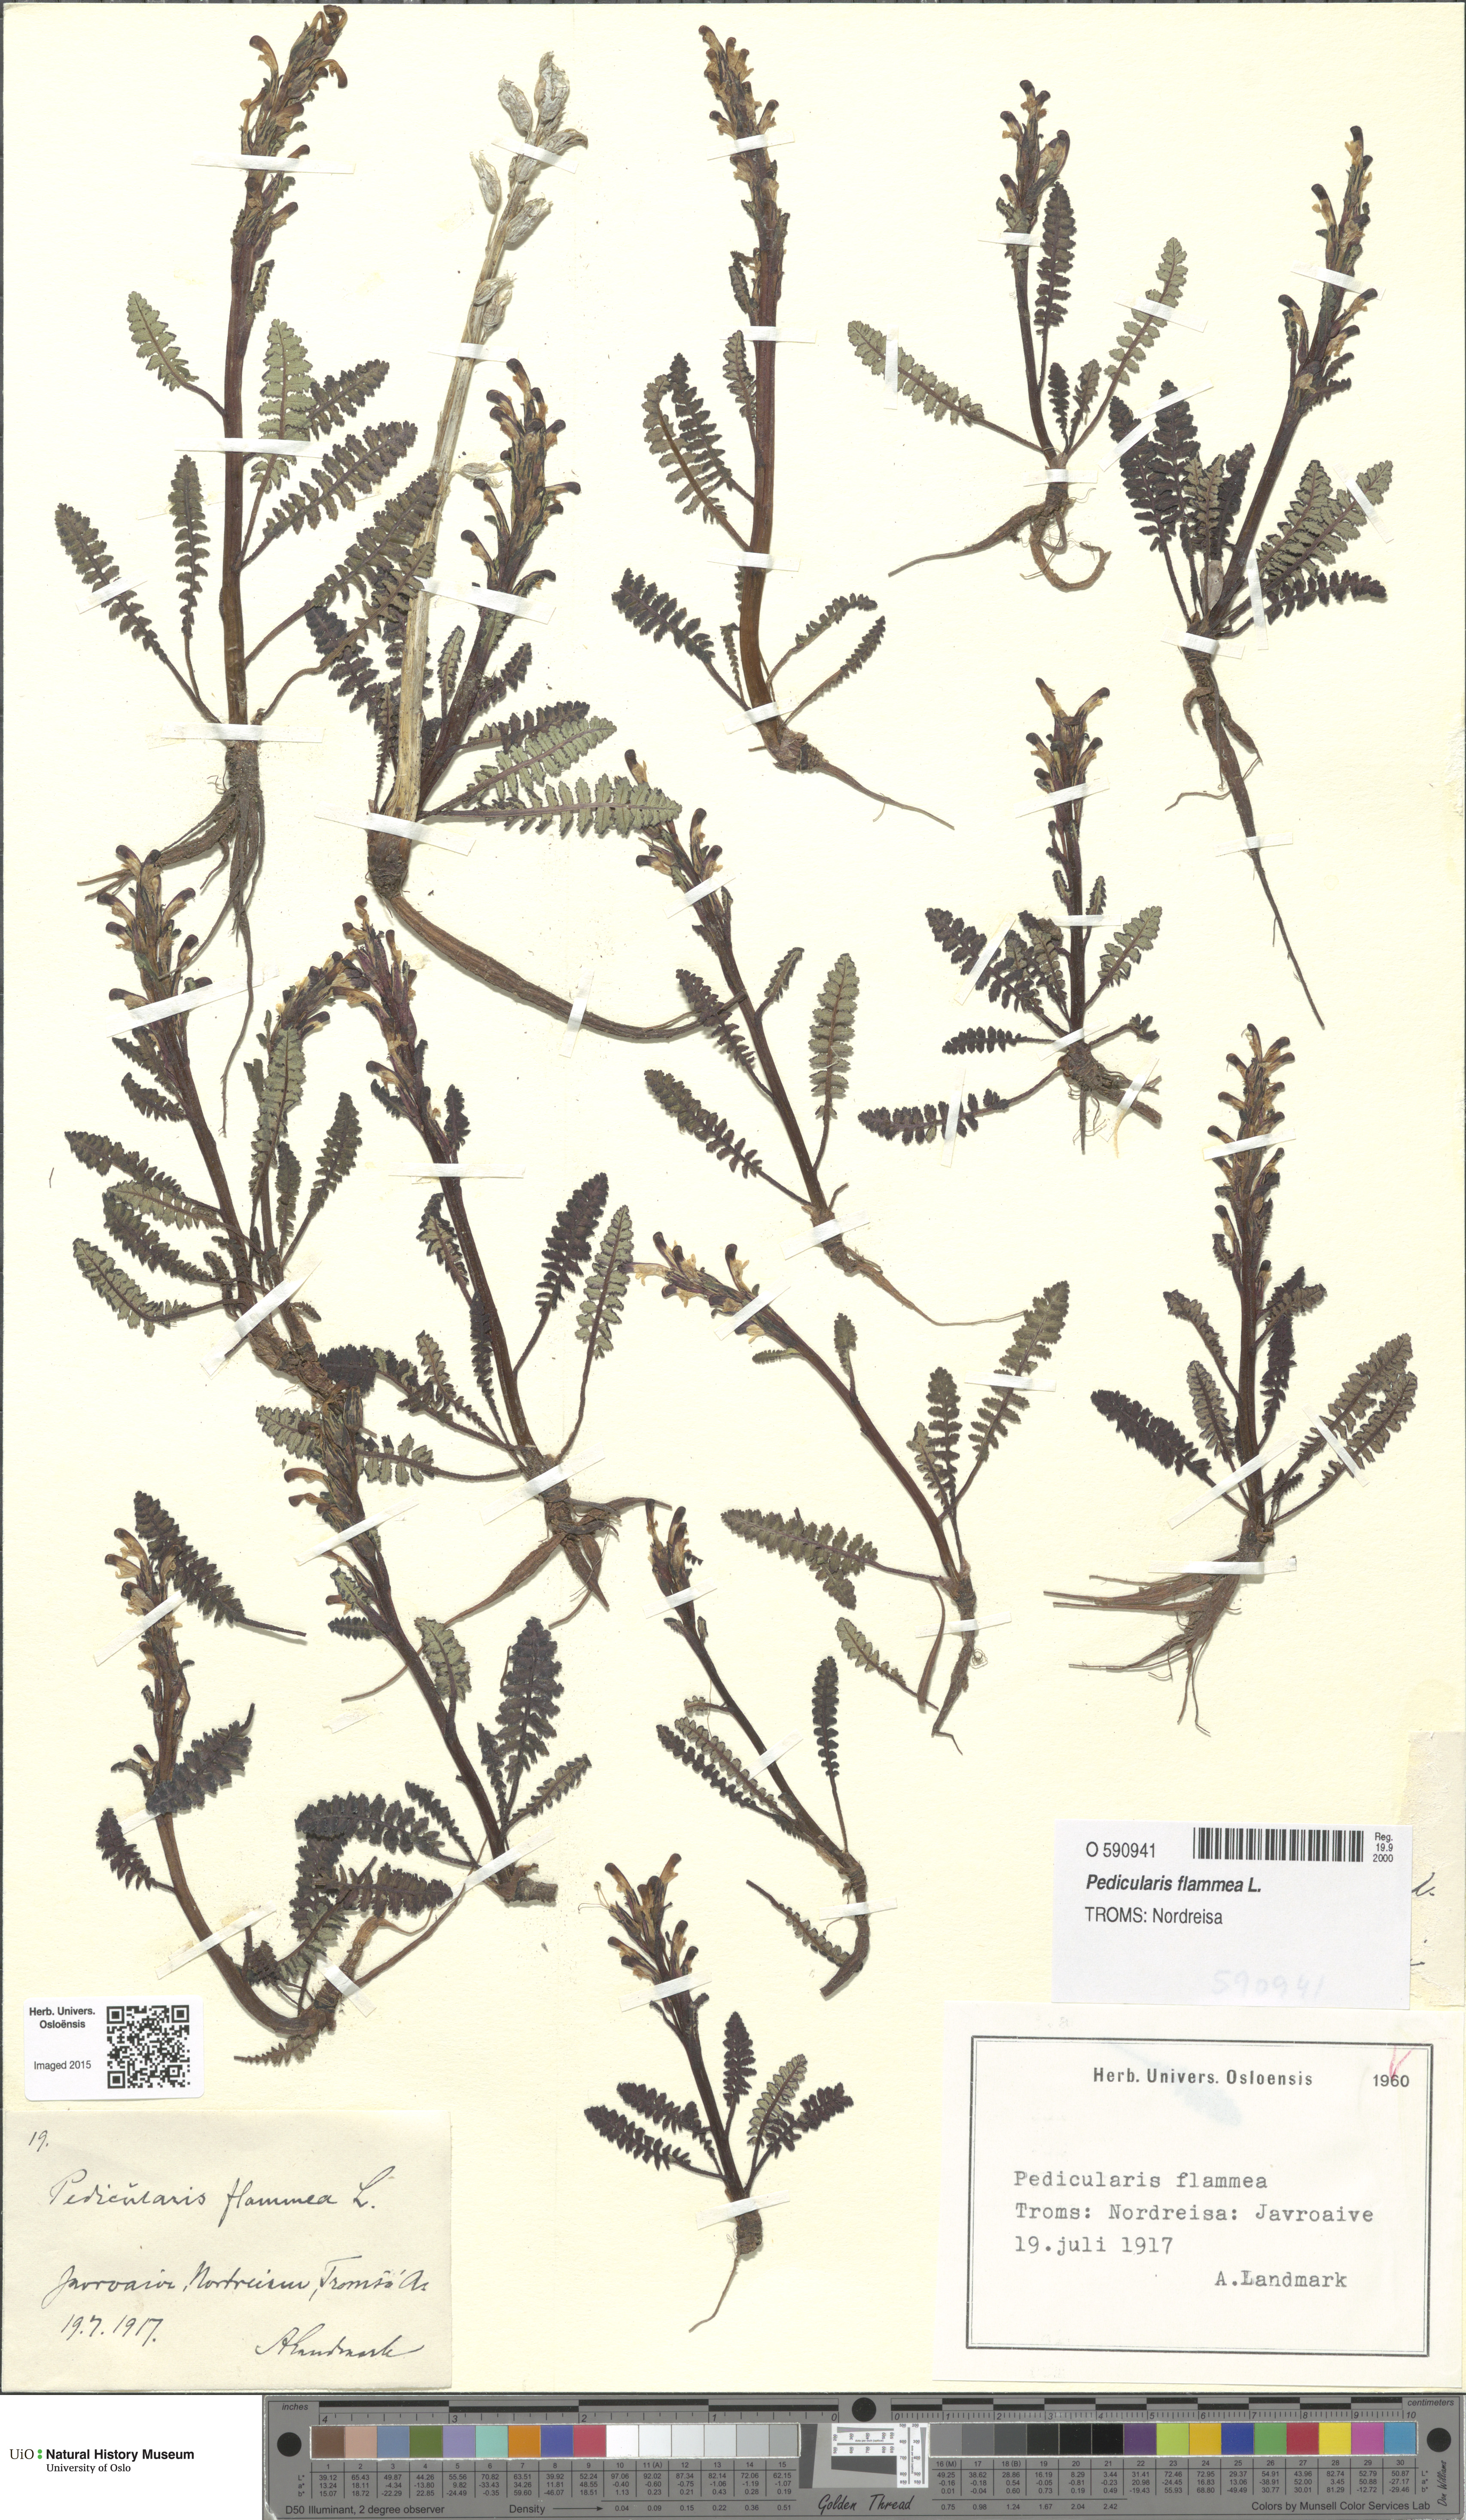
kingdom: Plantae
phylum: Tracheophyta
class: Magnoliopsida
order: Lamiales
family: Orobanchaceae
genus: Pedicularis
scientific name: Pedicularis flammea
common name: Flame-coloured lousewort
